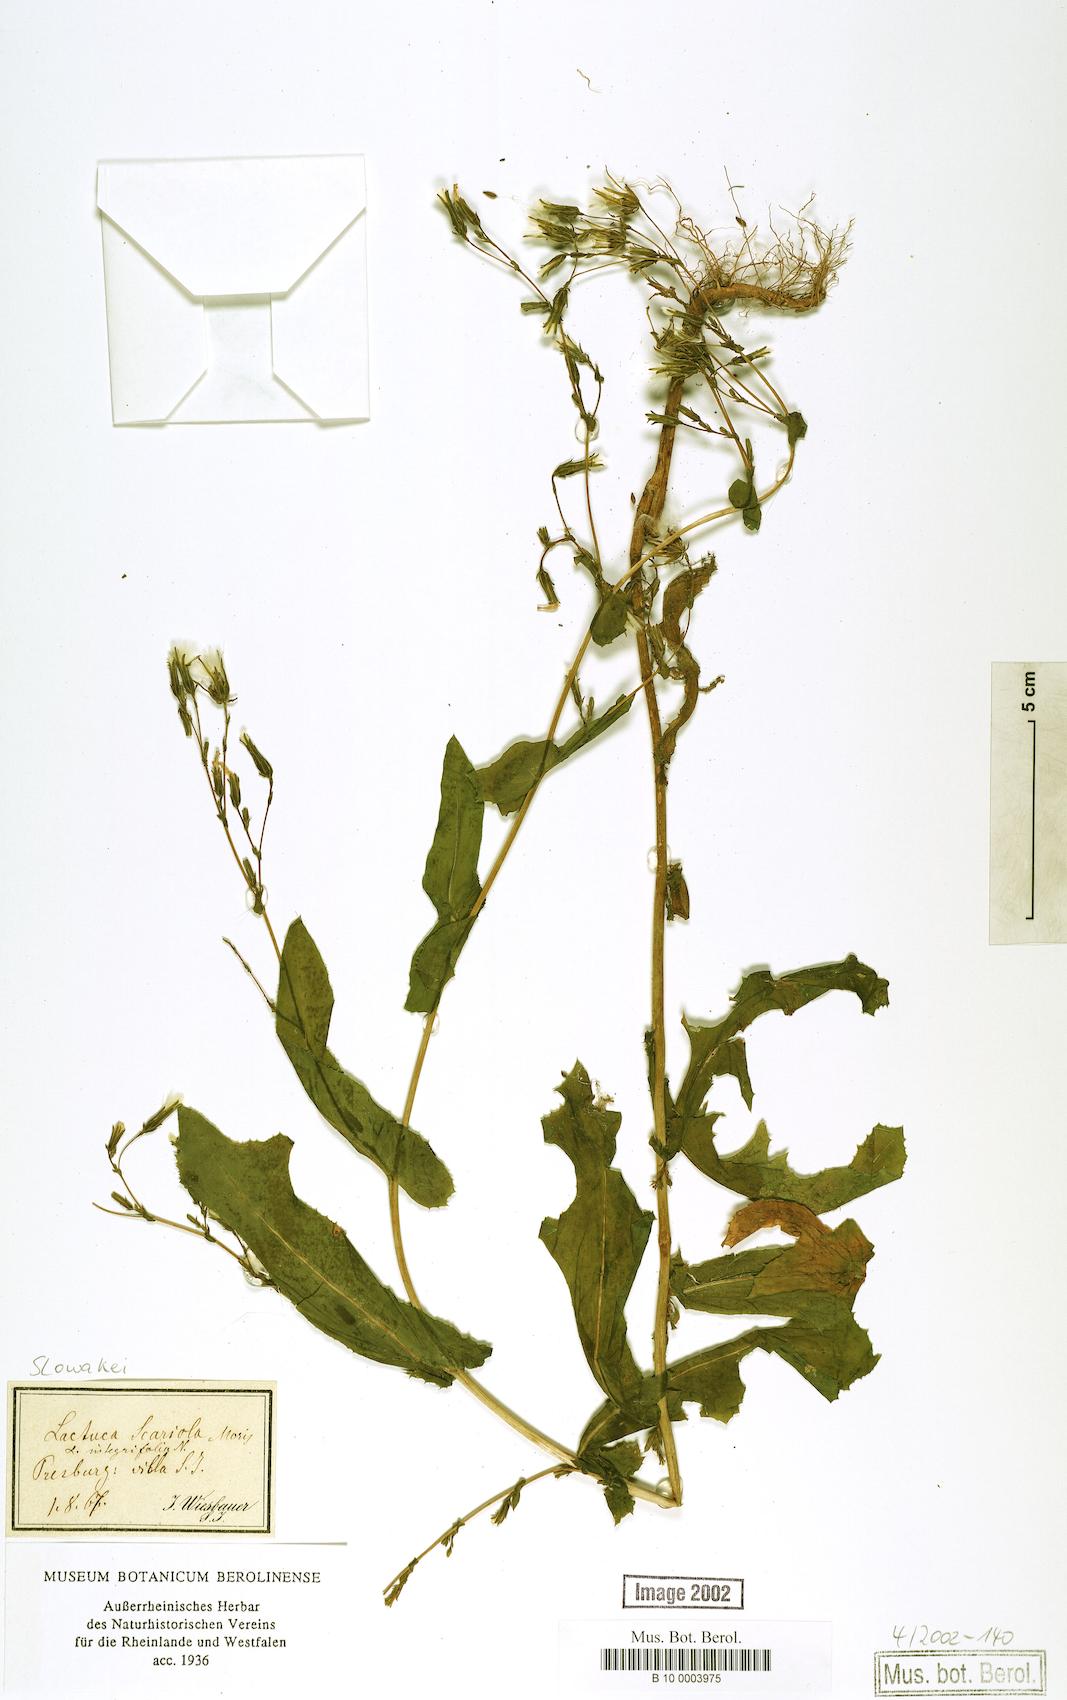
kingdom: Plantae
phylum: Tracheophyta
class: Magnoliopsida
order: Asterales
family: Asteraceae
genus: Lactuca
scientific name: Lactuca serriola
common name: Prickly lettuce
